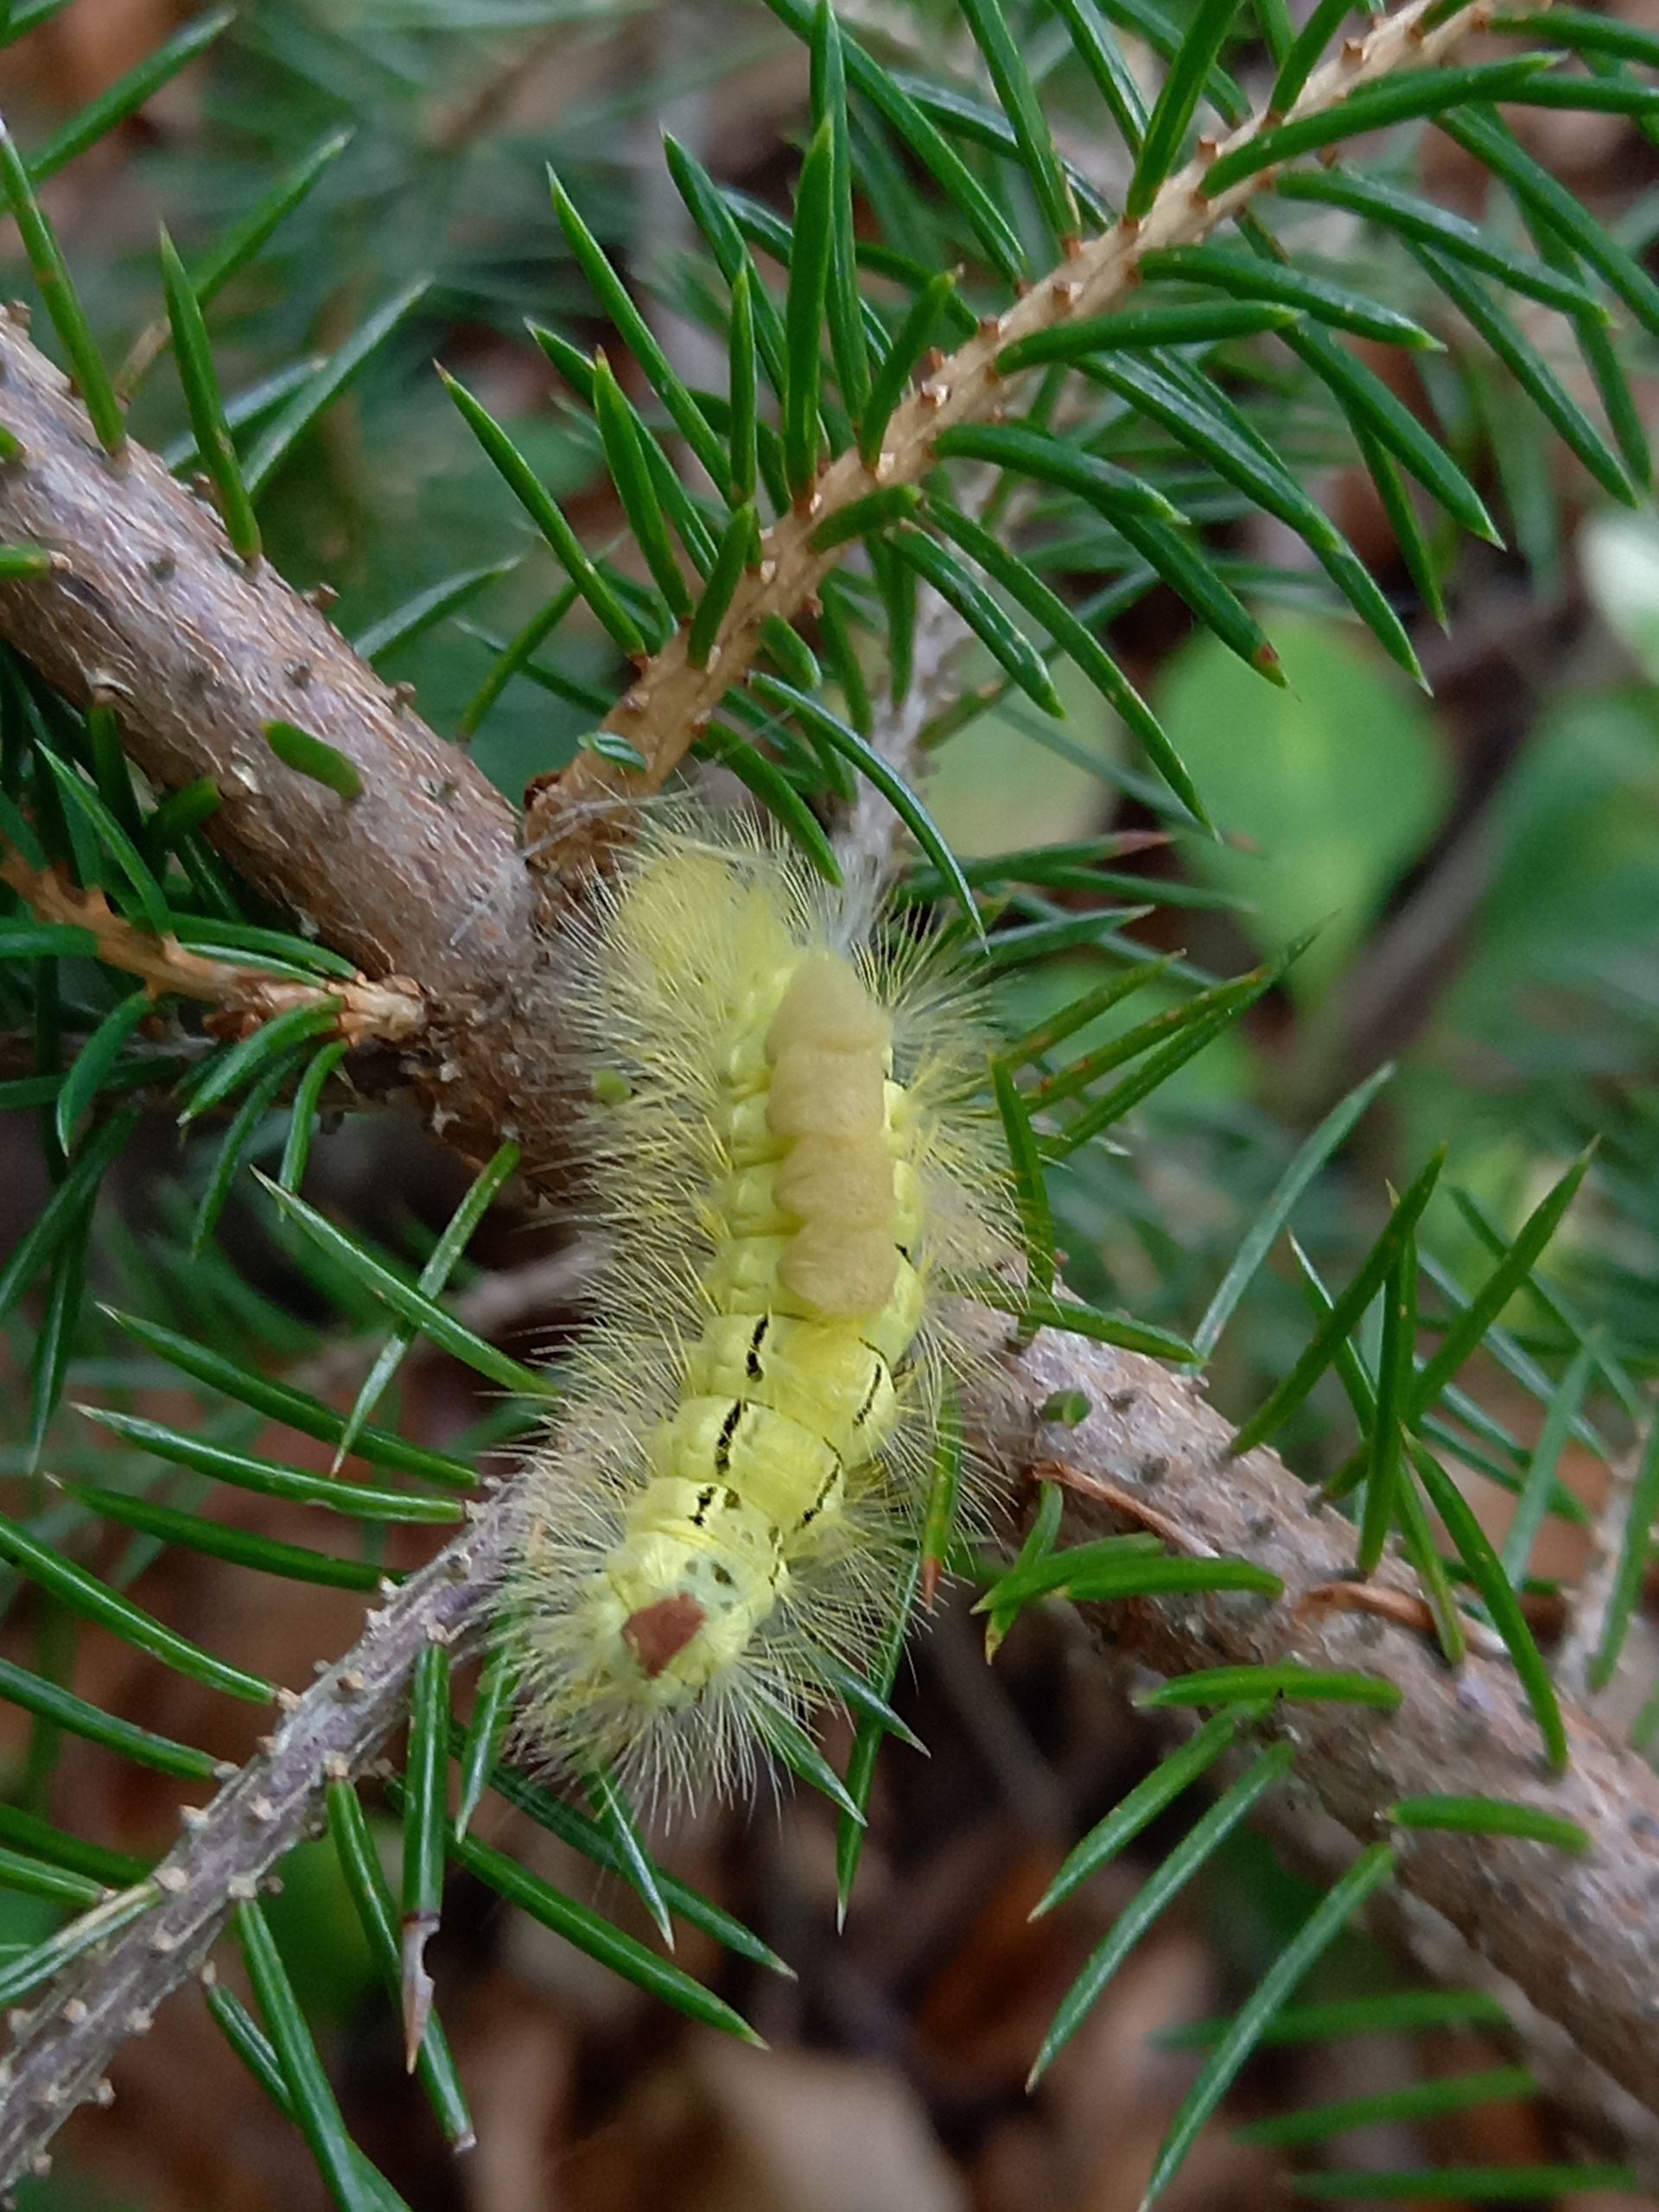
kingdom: Animalia
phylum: Arthropoda
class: Insecta
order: Lepidoptera
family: Erebidae
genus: Calliteara
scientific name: Calliteara pudibunda
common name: Bøgenonne
